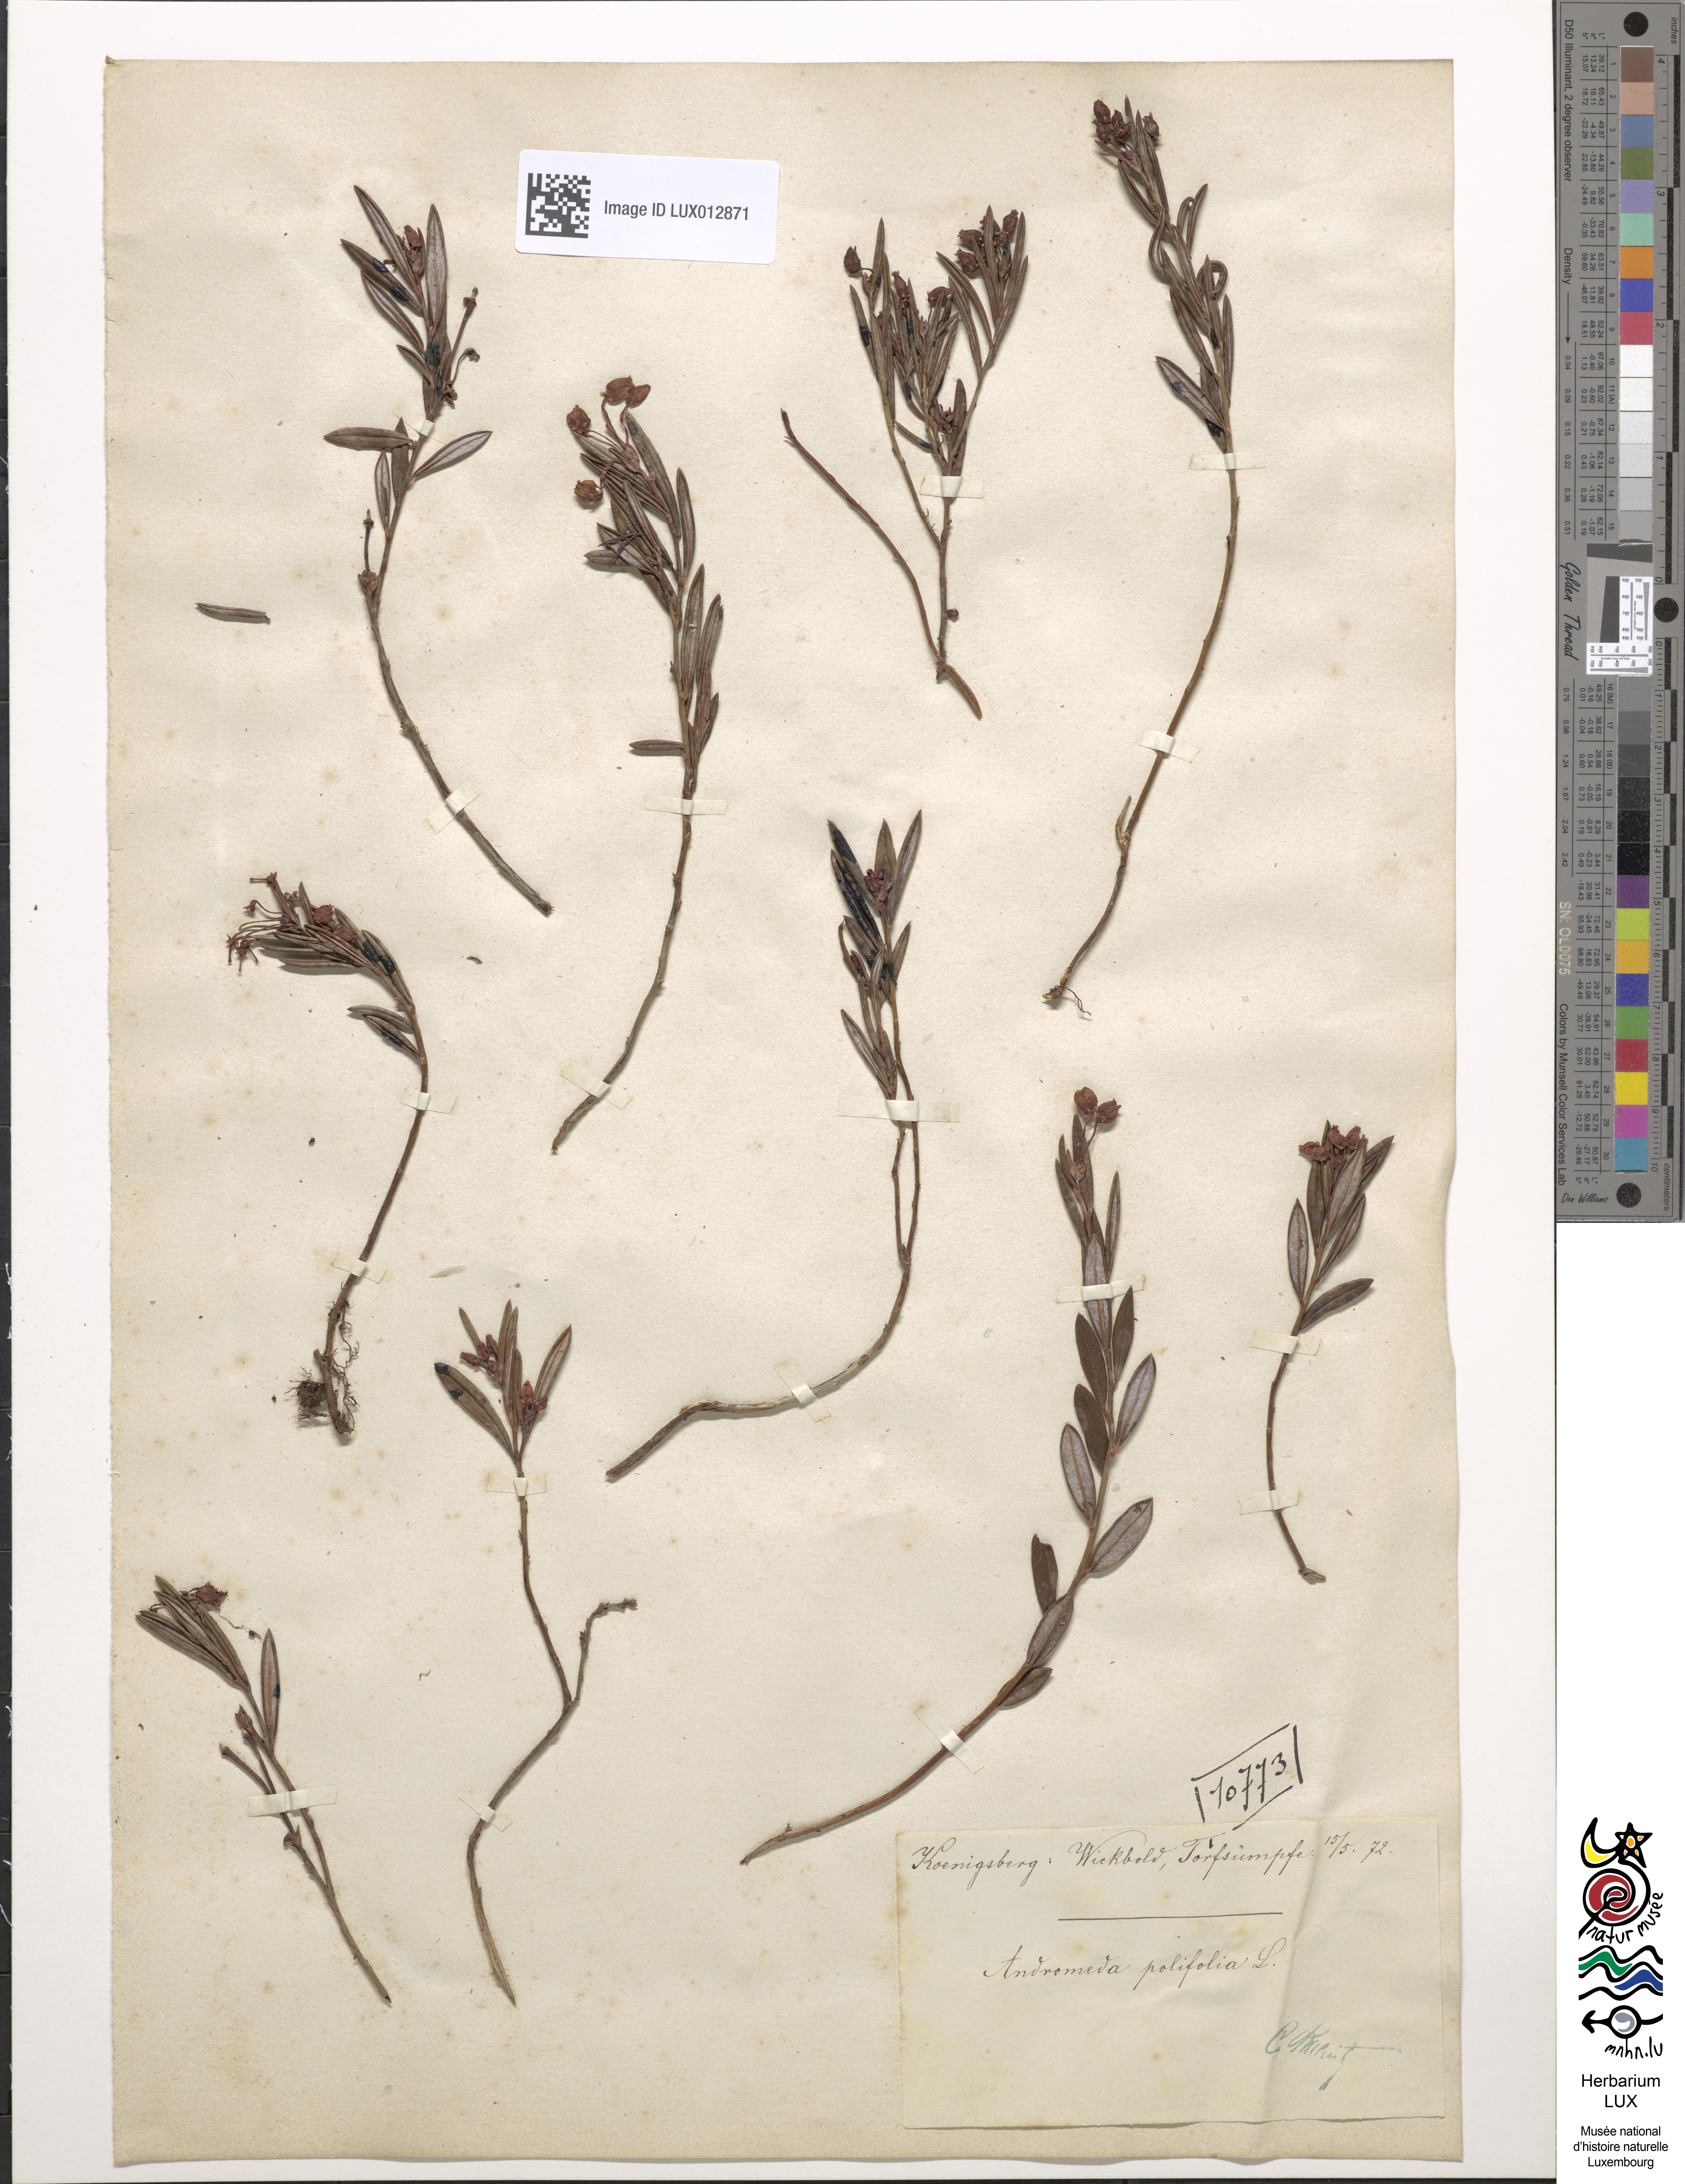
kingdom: Plantae
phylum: Tracheophyta
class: Magnoliopsida
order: Ericales
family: Ericaceae
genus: Andromeda
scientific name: Andromeda polifolia
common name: Bog-rosemary
